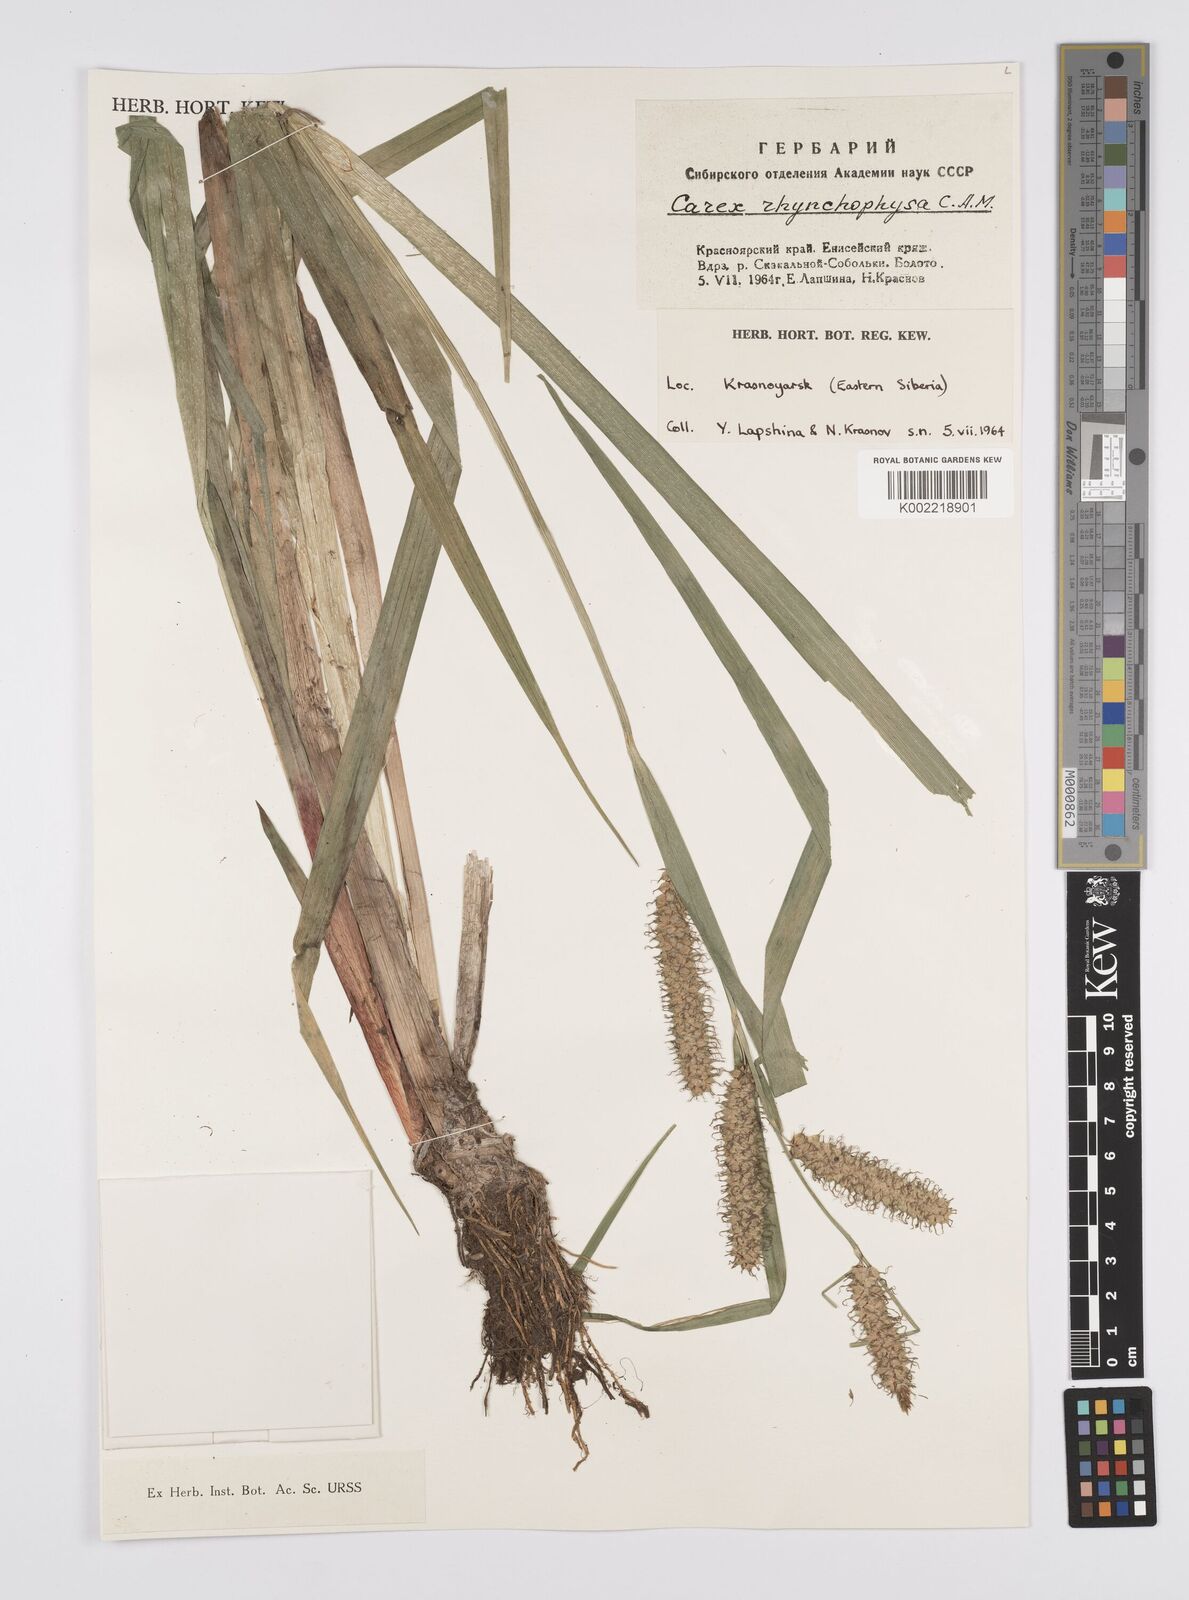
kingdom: Plantae
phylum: Tracheophyta
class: Liliopsida
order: Poales
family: Cyperaceae
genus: Carex
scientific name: Carex utriculata
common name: Beaked sedge
